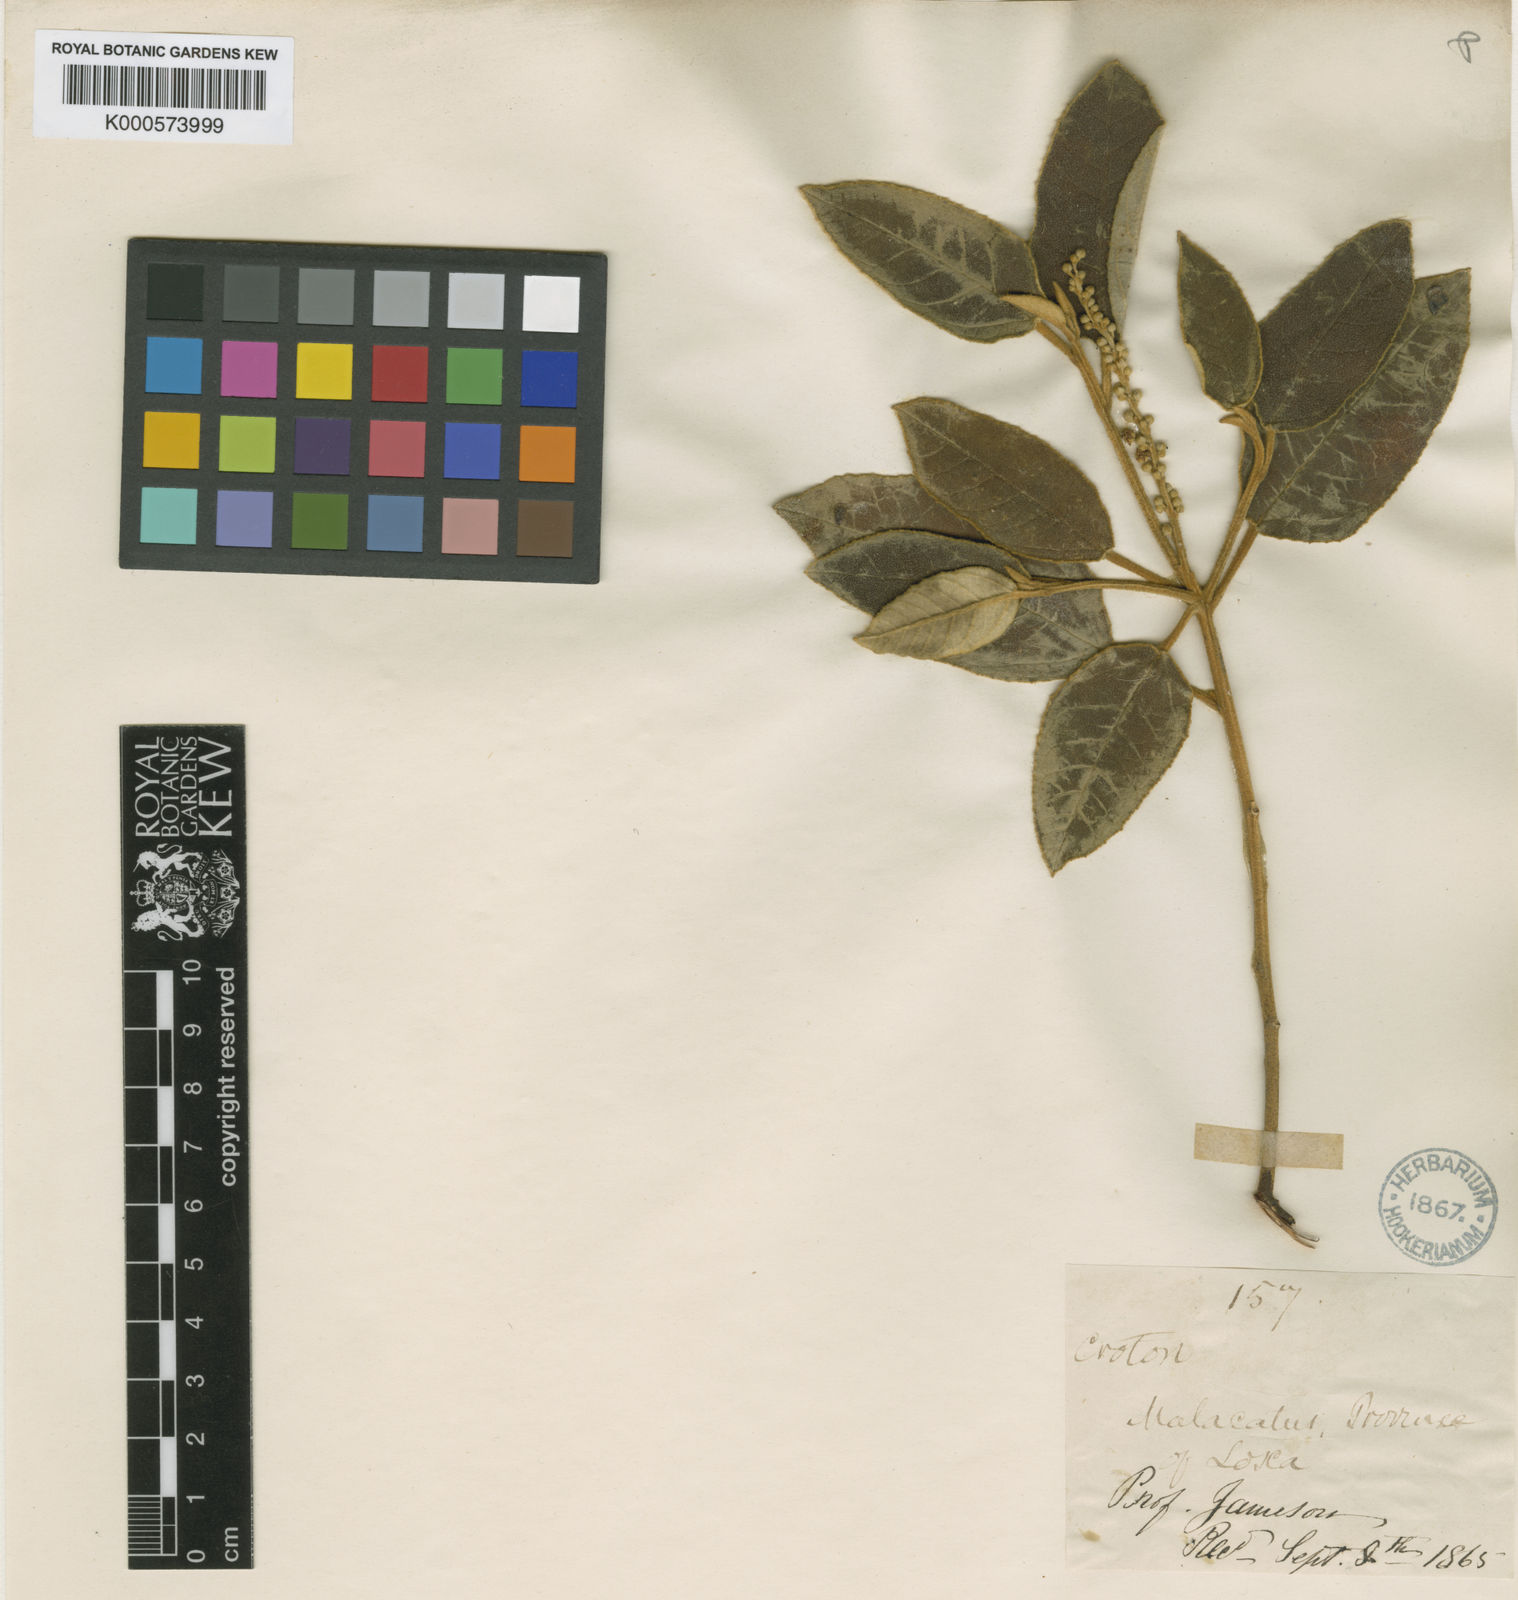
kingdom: Plantae
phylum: Tracheophyta
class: Magnoliopsida
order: Malpighiales
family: Euphorbiaceae
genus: Croton
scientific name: Croton ferrugineus
